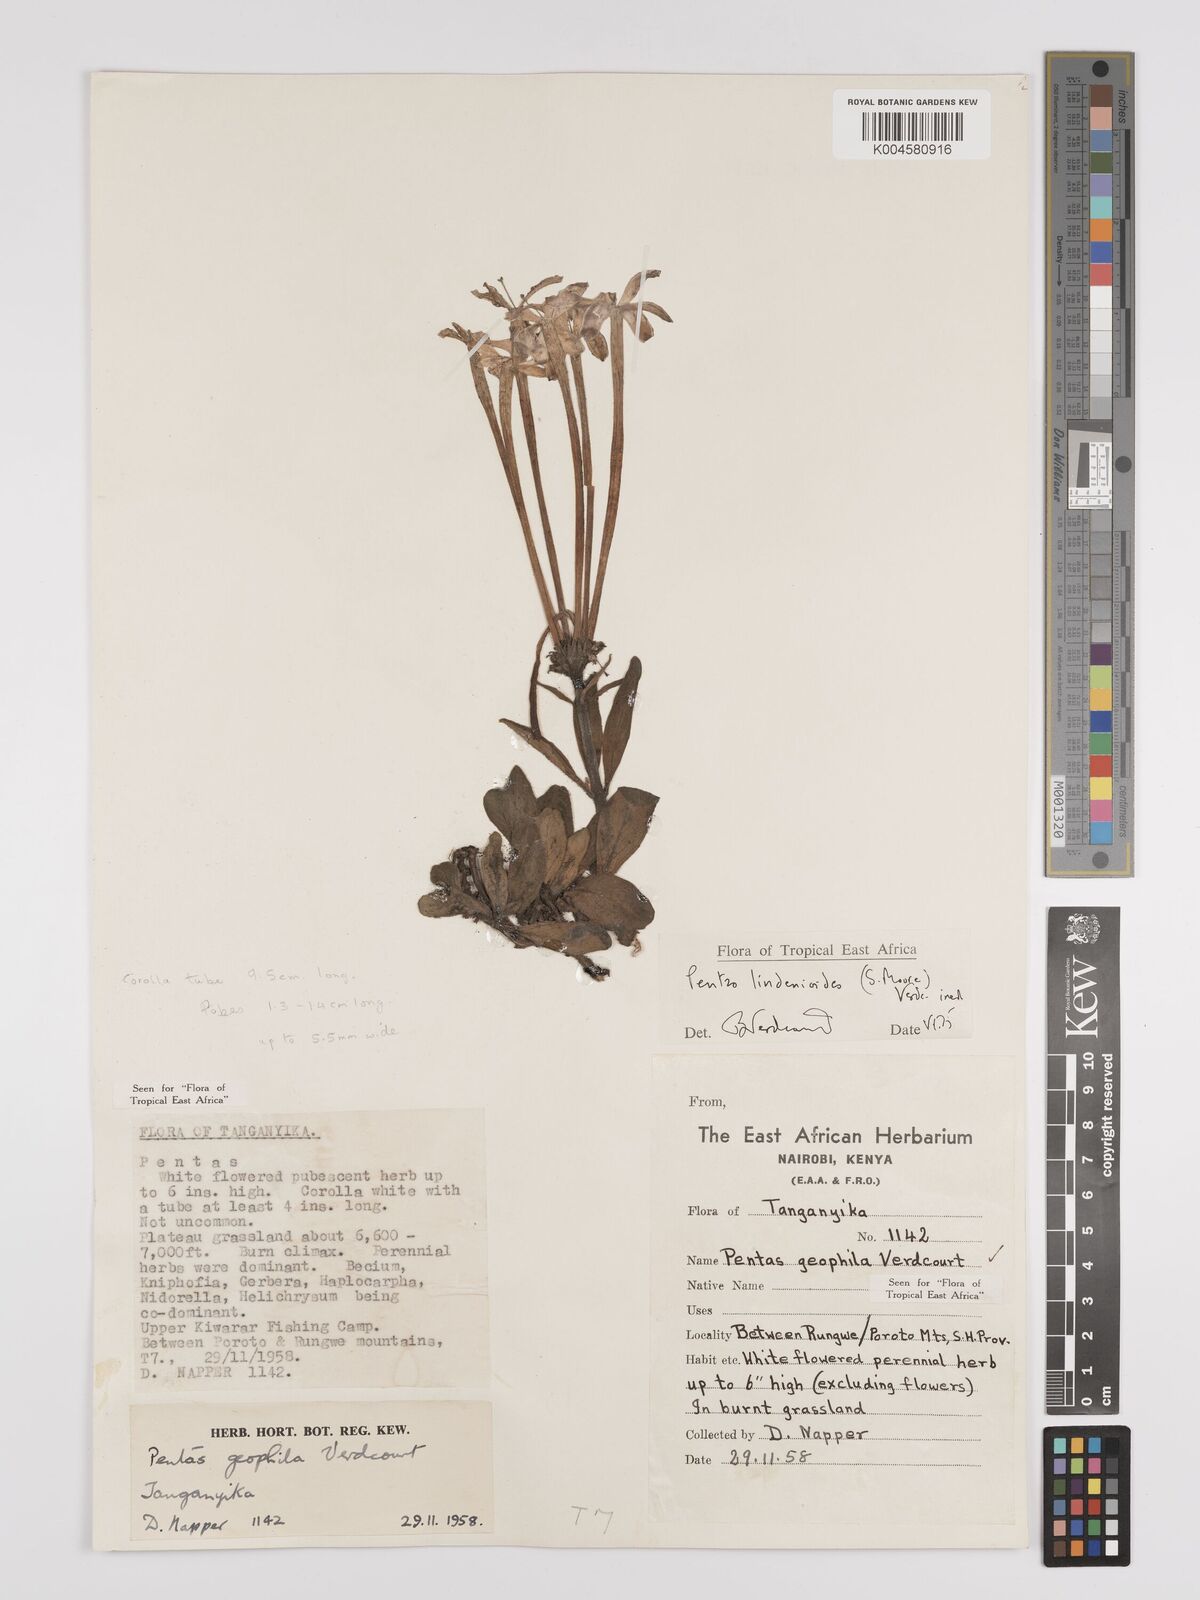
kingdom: Plantae
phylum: Tracheophyta
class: Magnoliopsida
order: Gentianales
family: Rubiaceae
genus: Dolichopentas
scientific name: Dolichopentas lindenioides
